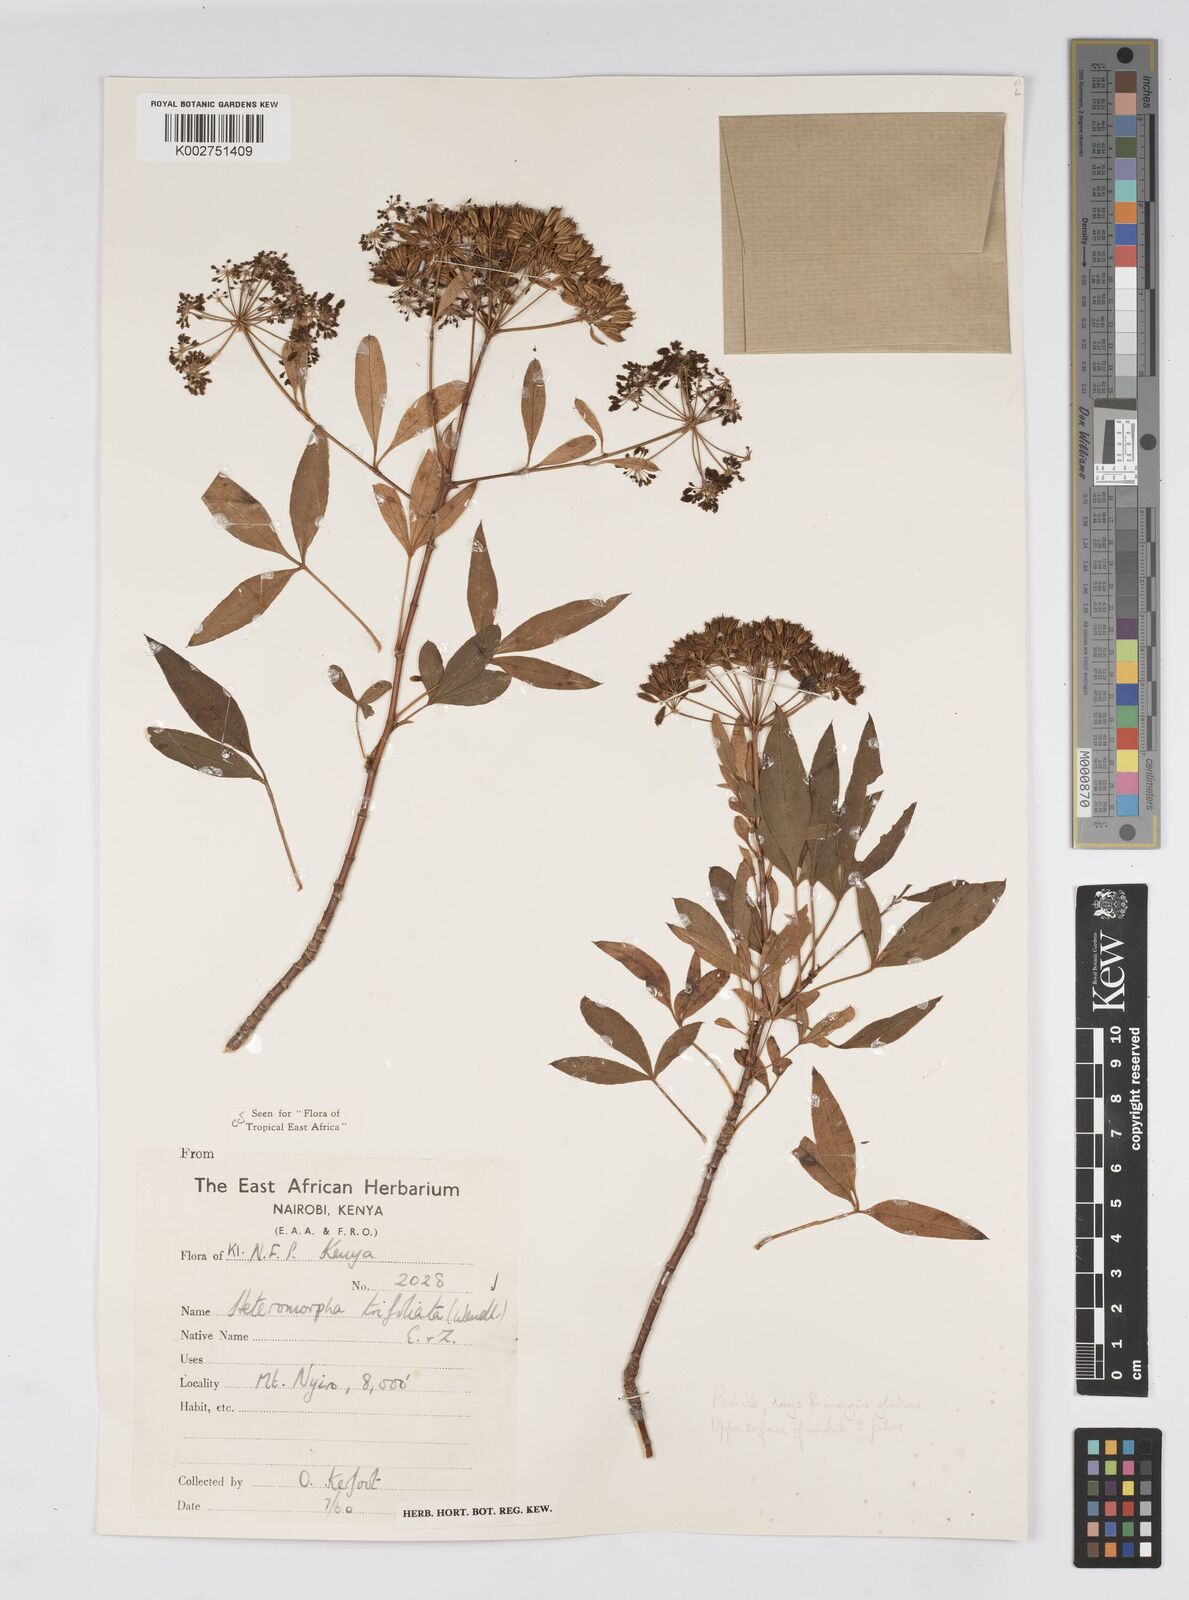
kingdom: Plantae
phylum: Tracheophyta
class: Magnoliopsida
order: Apiales
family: Apiaceae
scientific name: Apiaceae
